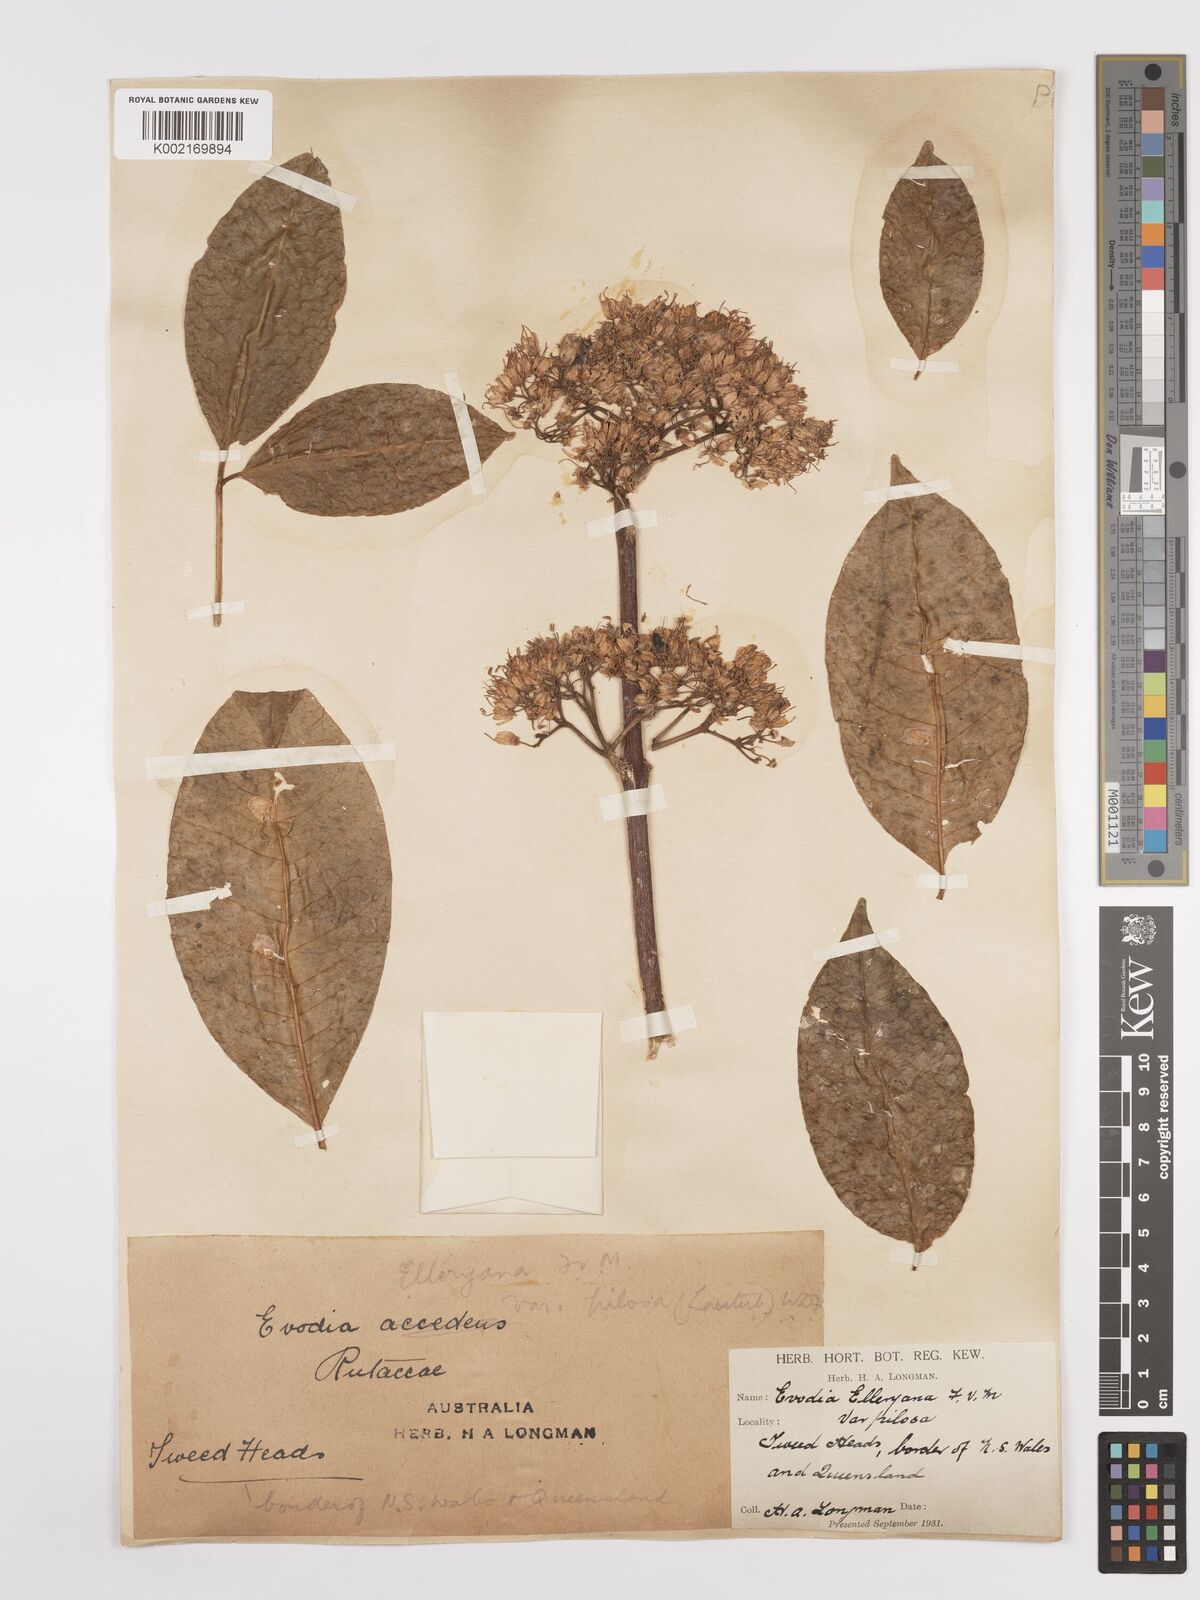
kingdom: Plantae
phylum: Tracheophyta
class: Magnoliopsida
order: Sapindales
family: Rutaceae
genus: Melicope
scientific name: Melicope accedens
